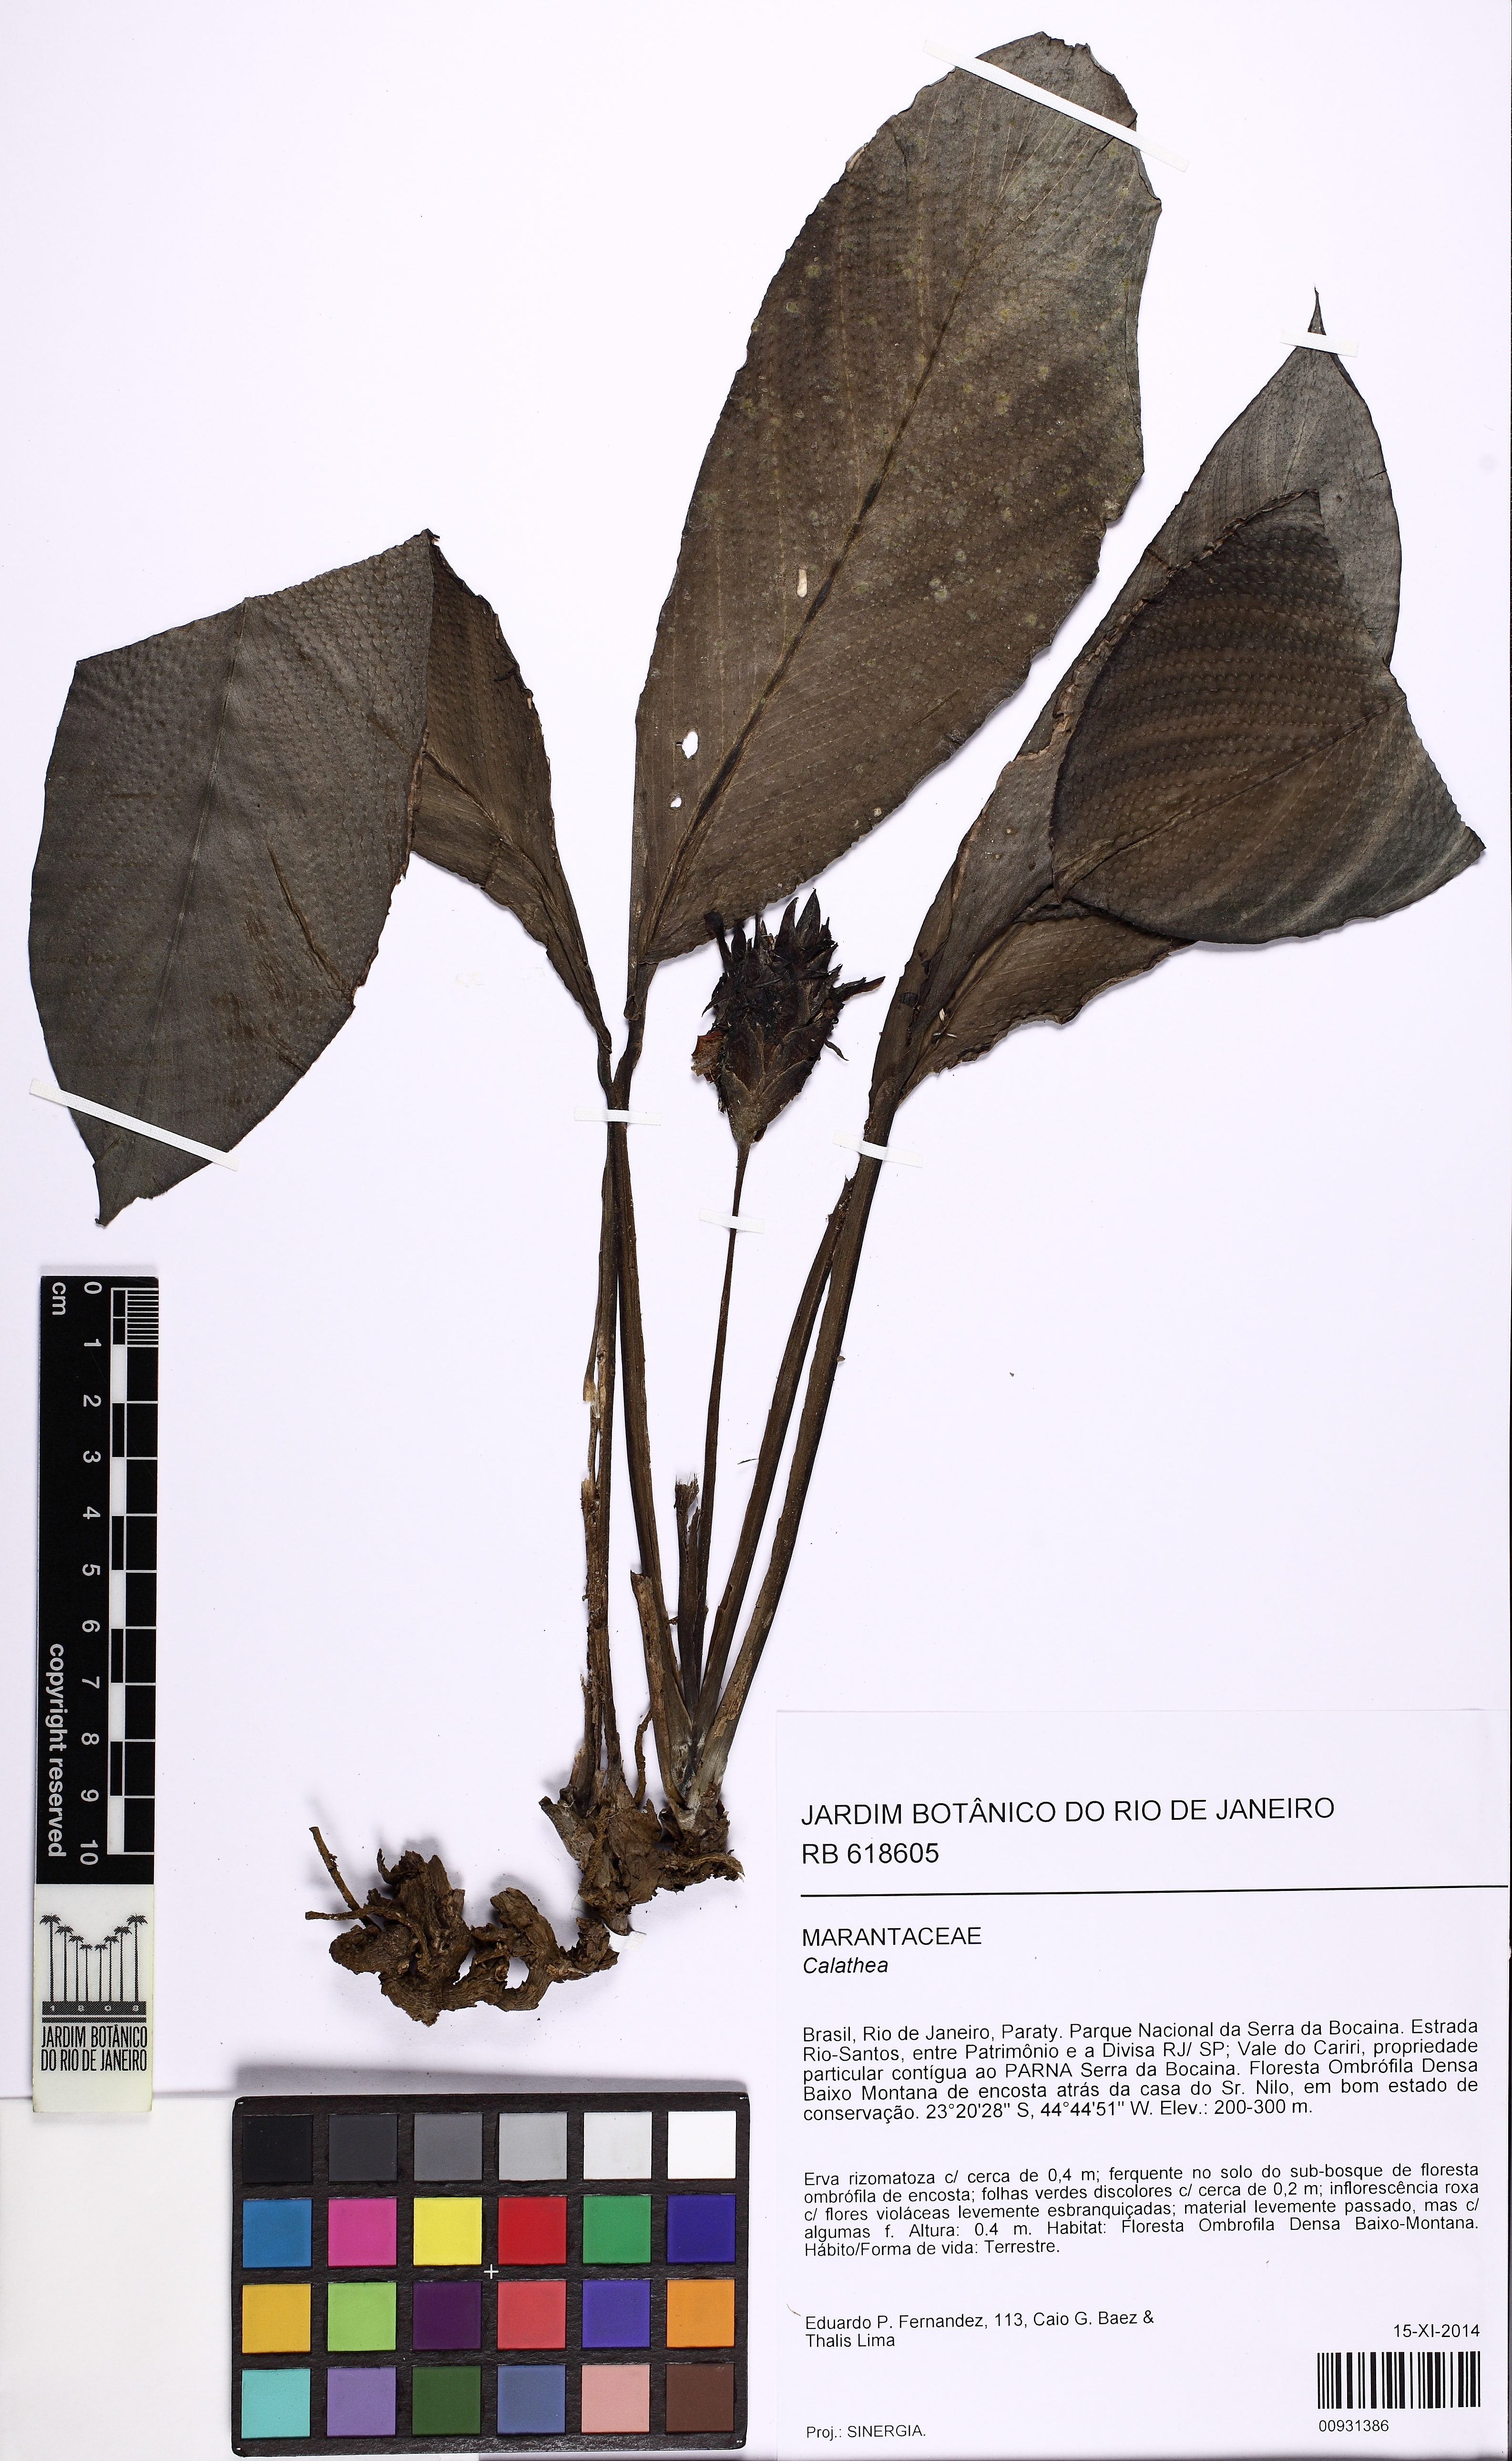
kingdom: Plantae
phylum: Tracheophyta
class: Liliopsida
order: Zingiberales
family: Marantaceae
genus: Calathea
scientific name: Calathea
